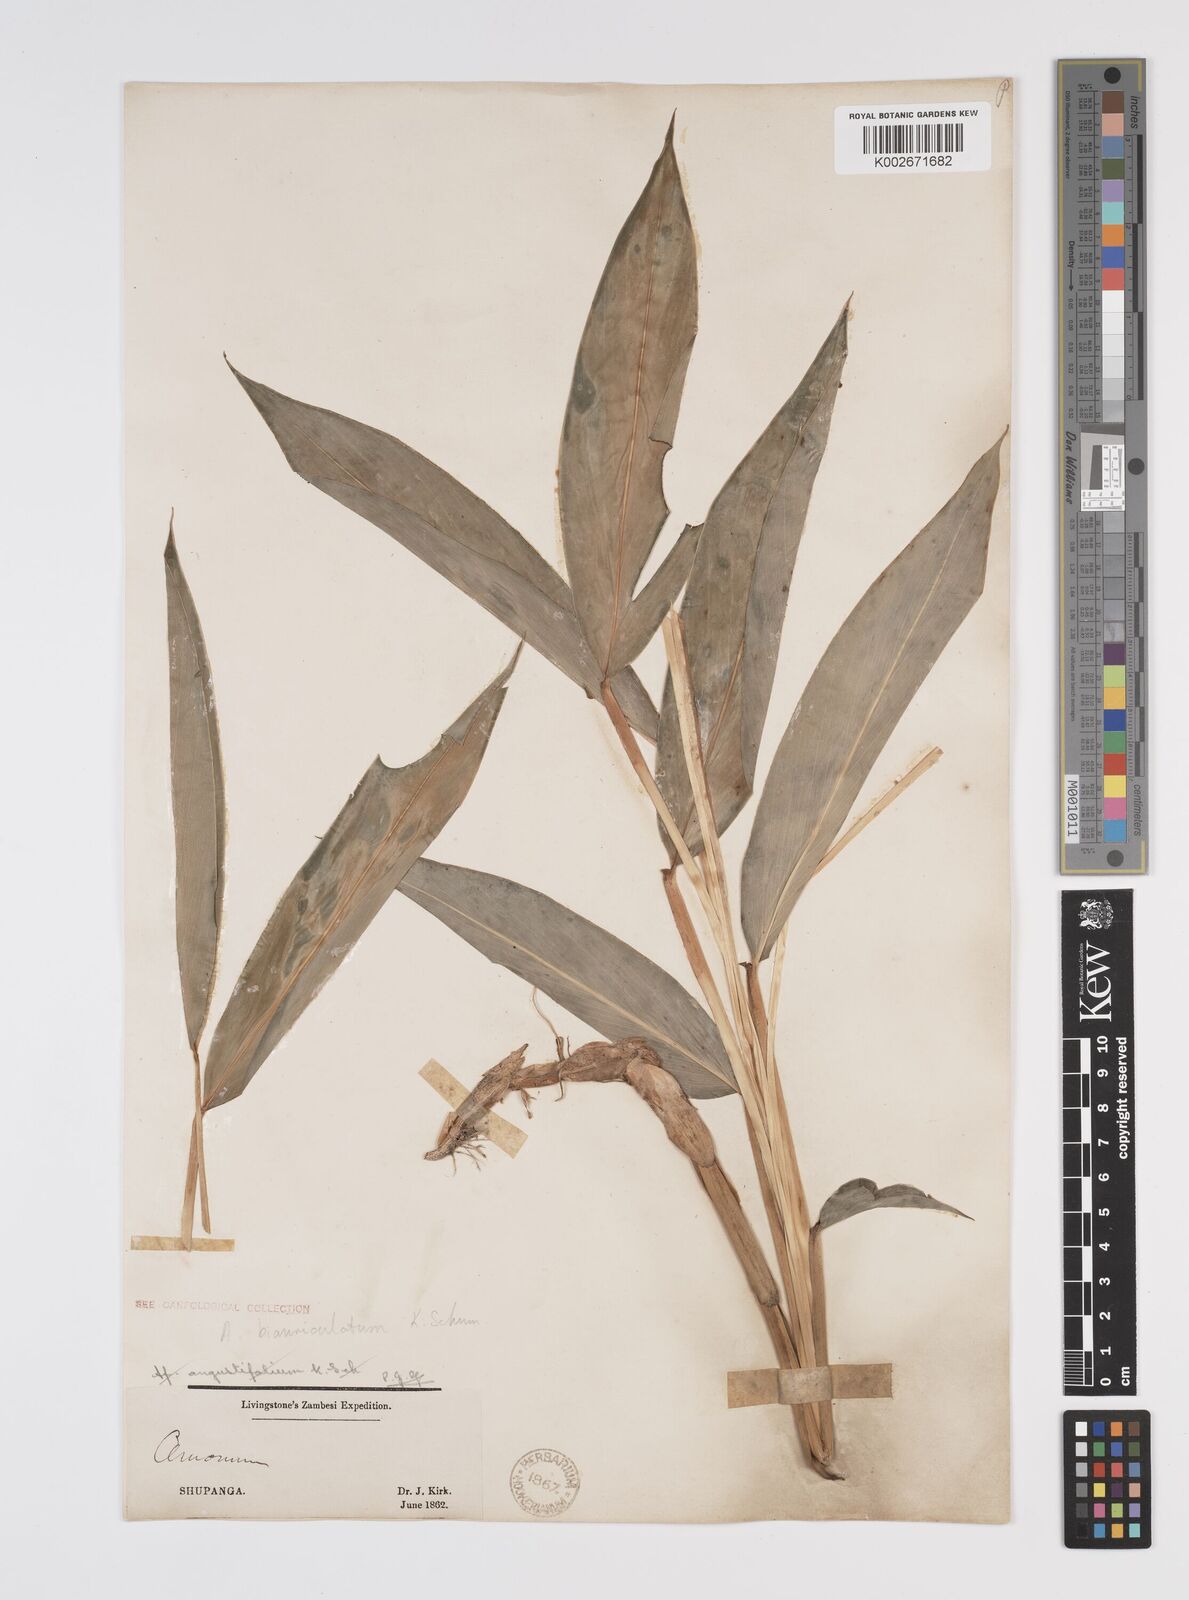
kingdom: Plantae
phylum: Tracheophyta
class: Liliopsida
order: Zingiberales
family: Zingiberaceae
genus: Aframomum
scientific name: Aframomum alboviolaceum
